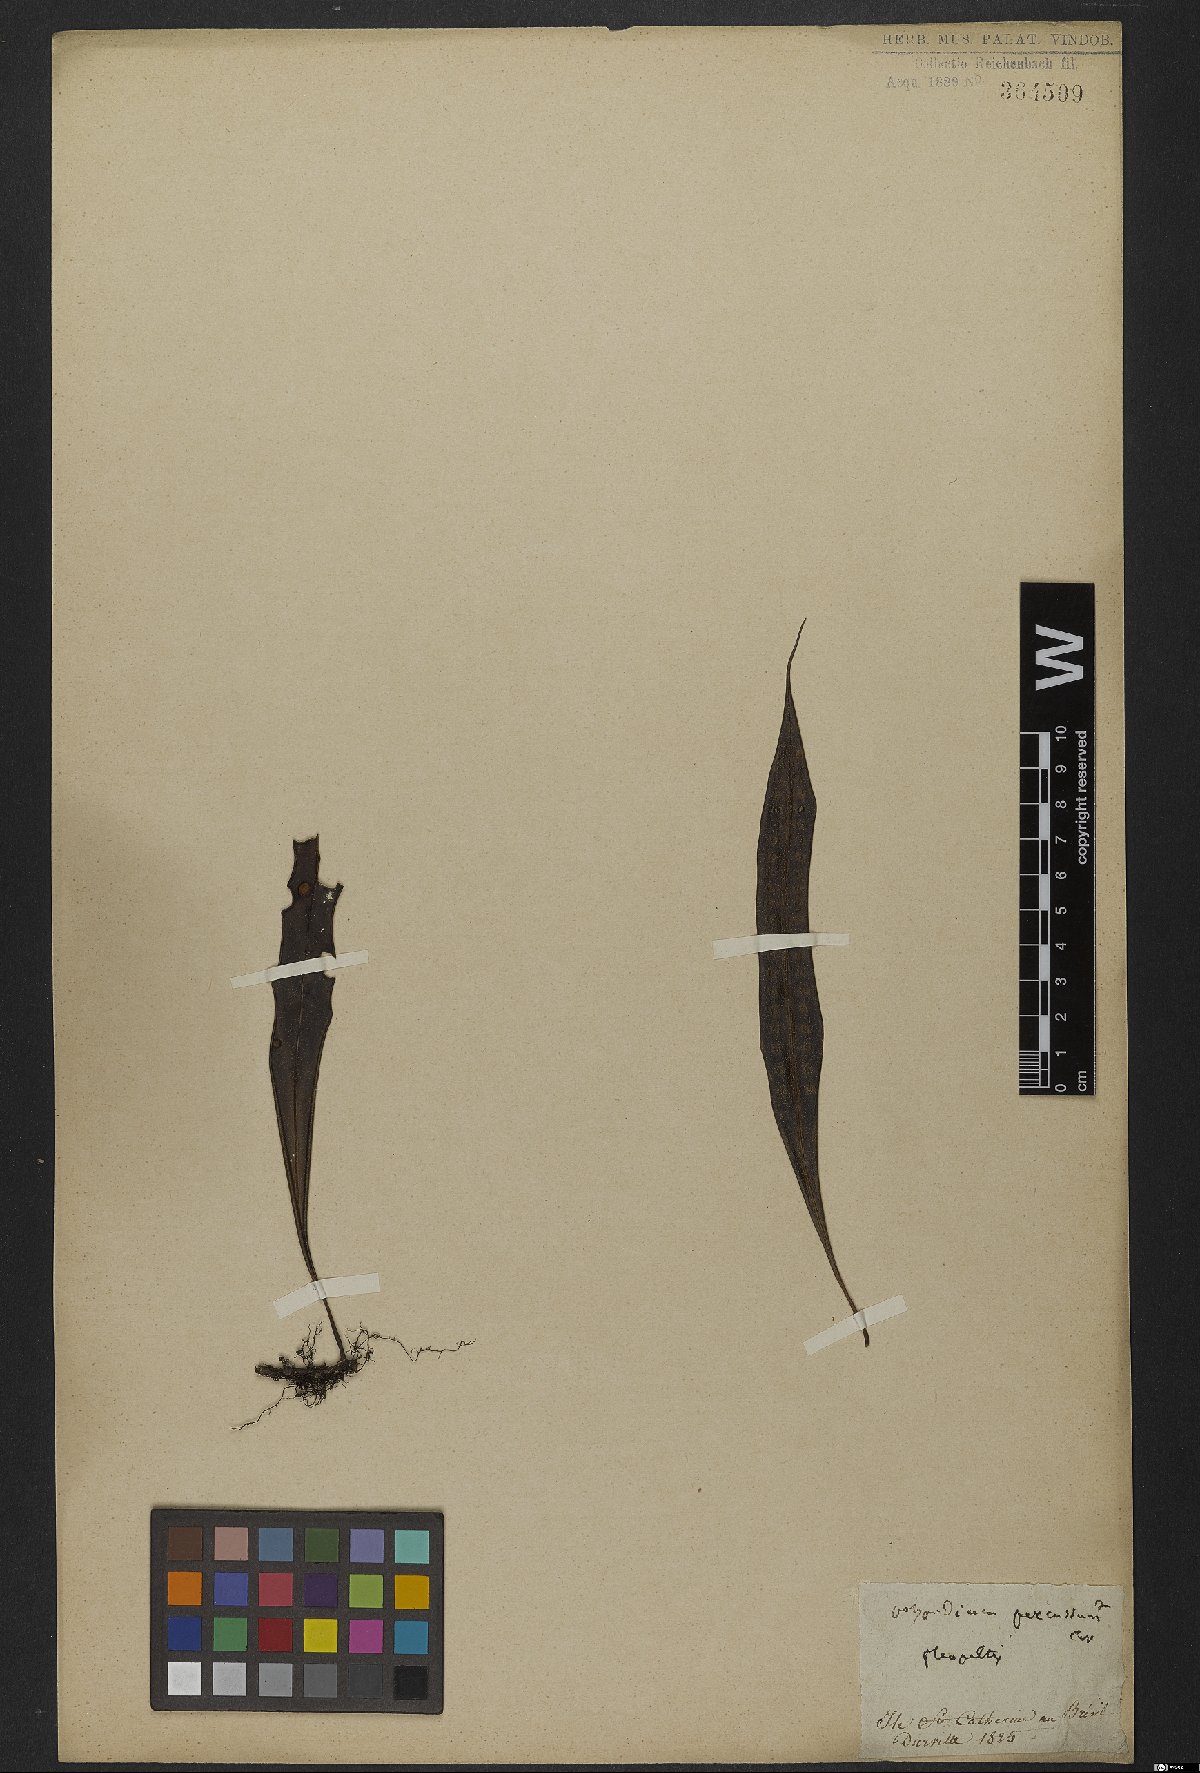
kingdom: Plantae
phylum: Tracheophyta
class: Polypodiopsida
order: Polypodiales
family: Polypodiaceae
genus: Microgramma
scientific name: Microgramma percussa
